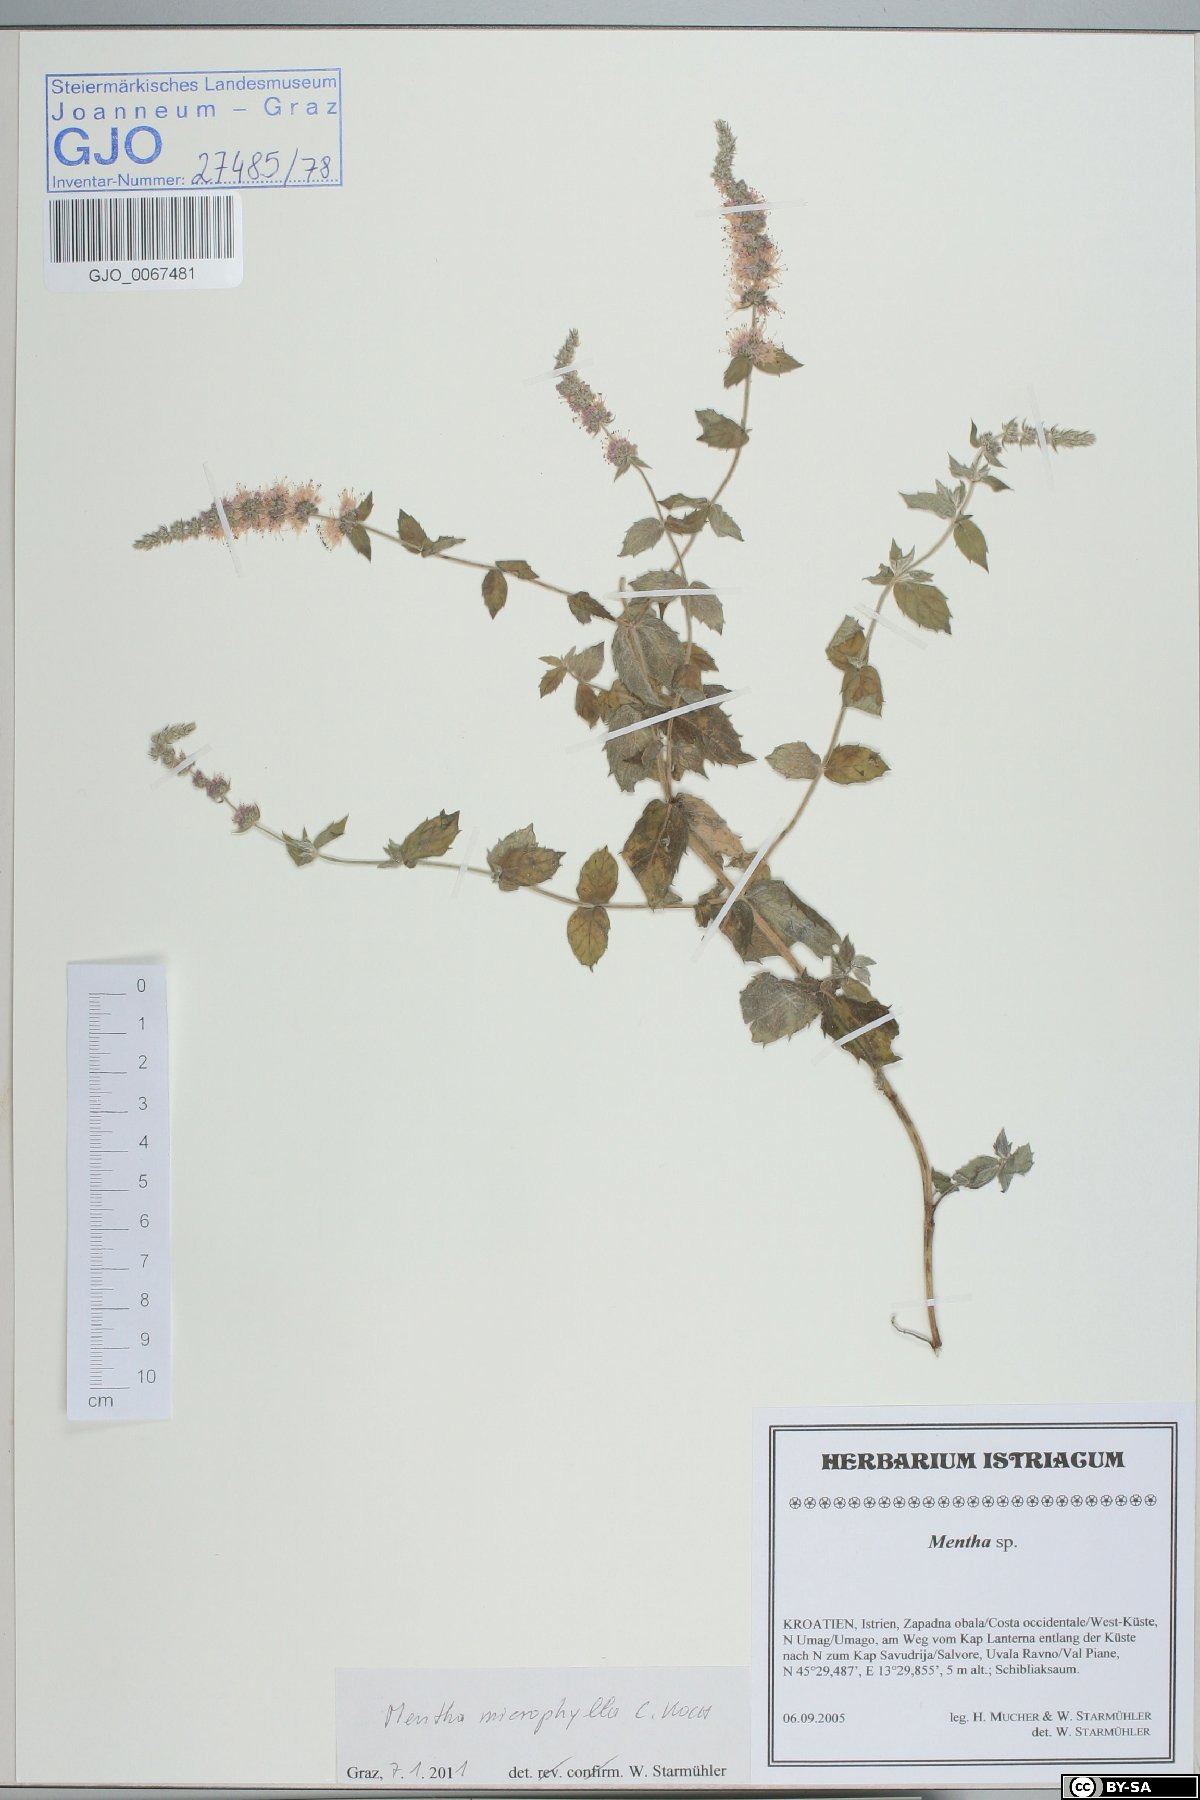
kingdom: Plantae
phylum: Tracheophyta
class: Magnoliopsida
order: Lamiales
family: Lamiaceae
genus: Mentha
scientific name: Mentha spicata
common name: Spearmint
